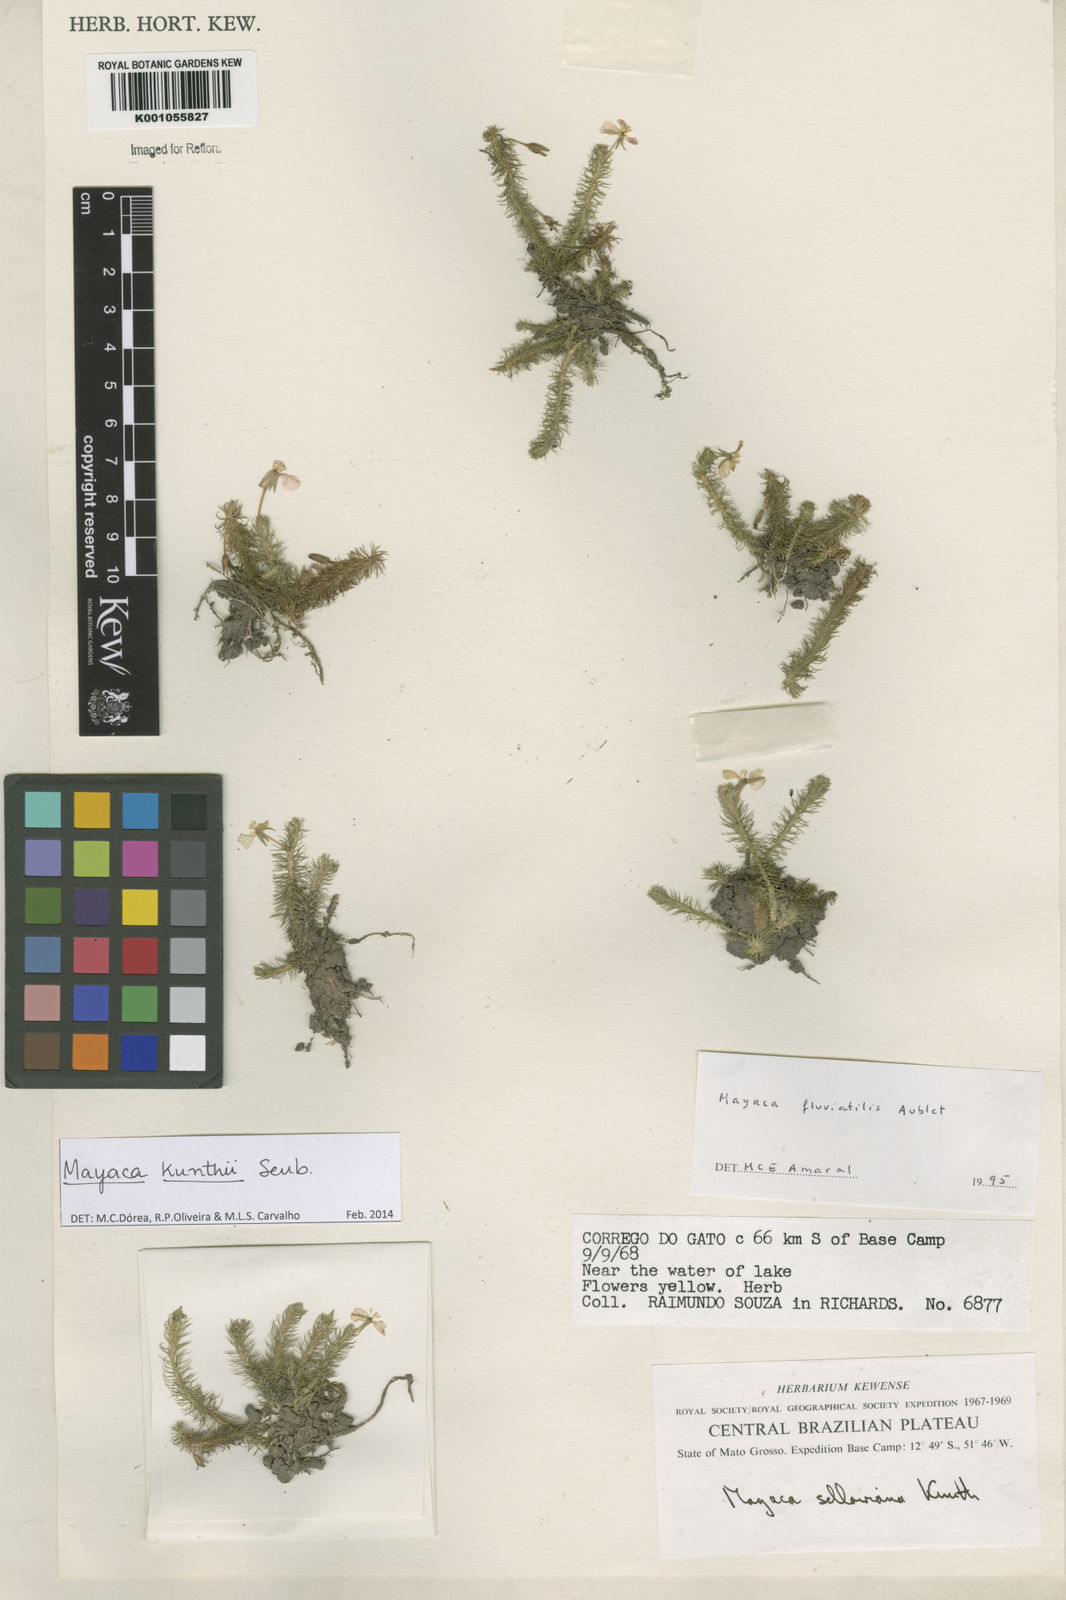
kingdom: Plantae
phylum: Tracheophyta
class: Liliopsida
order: Poales
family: Mayacaceae
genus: Mayaca
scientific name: Mayaca kunthii
